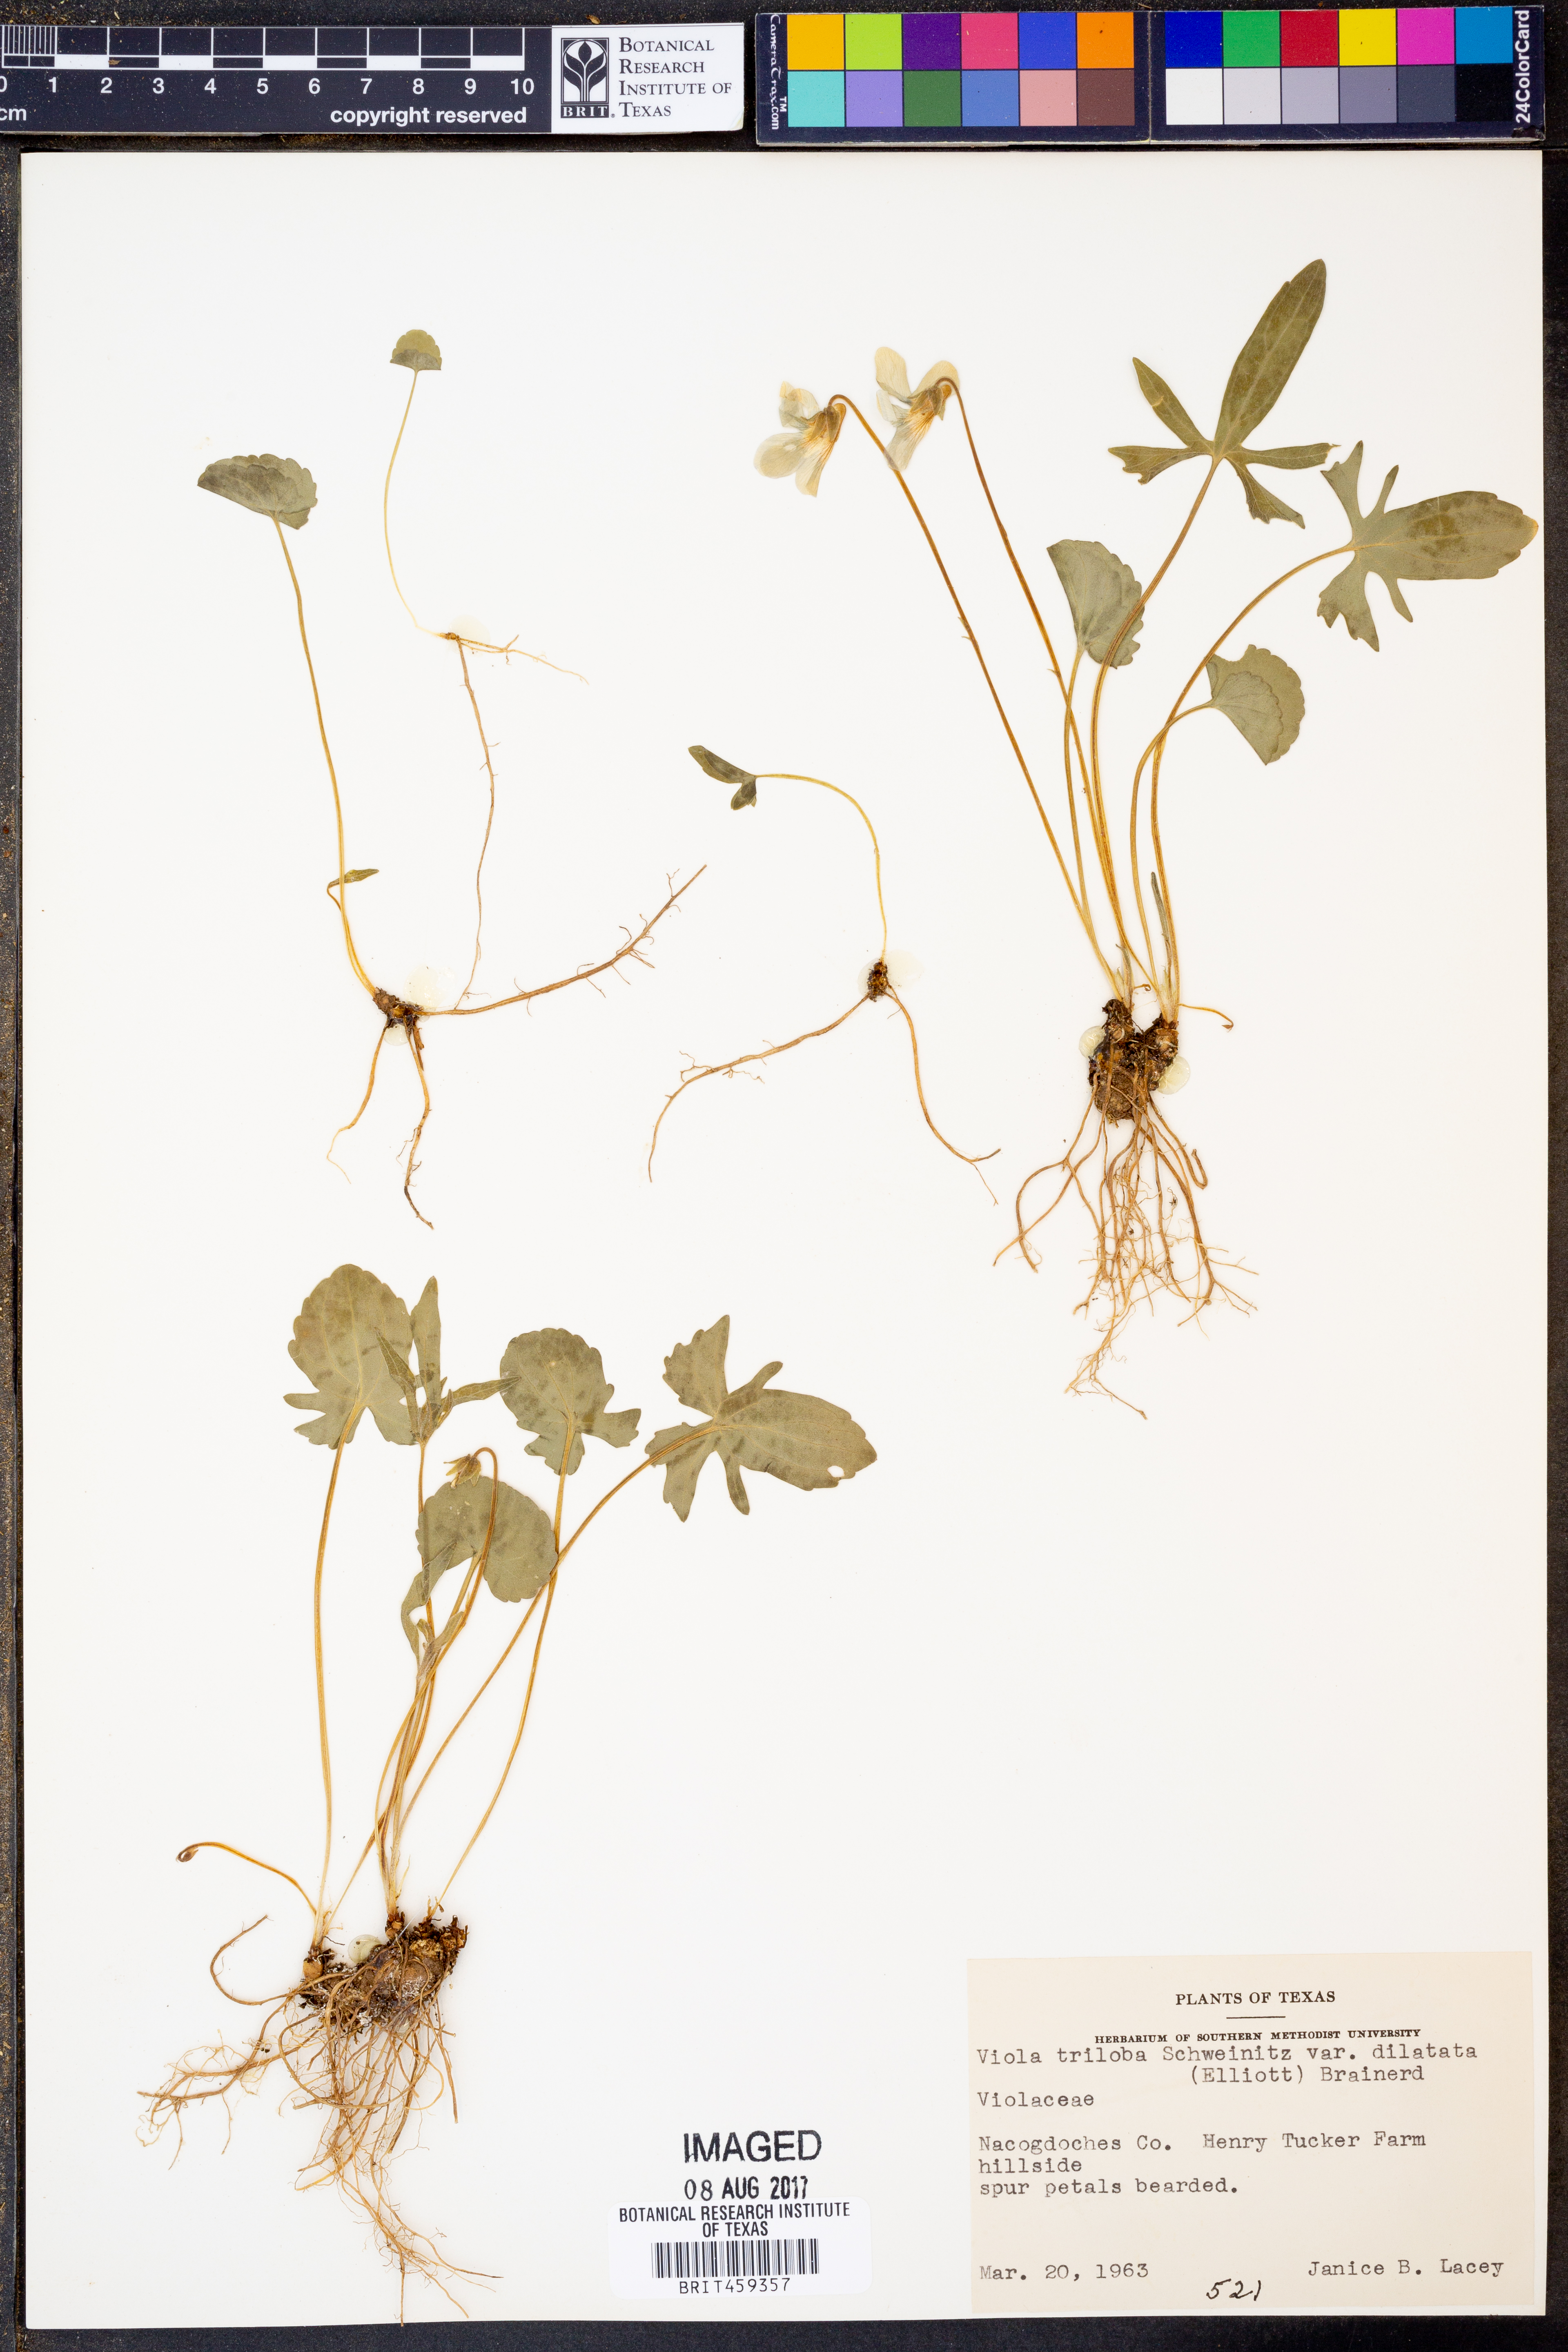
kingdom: Plantae
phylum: Tracheophyta
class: Magnoliopsida
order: Malpighiales
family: Violaceae
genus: Viola
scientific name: Viola palmata
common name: Early blue violet
